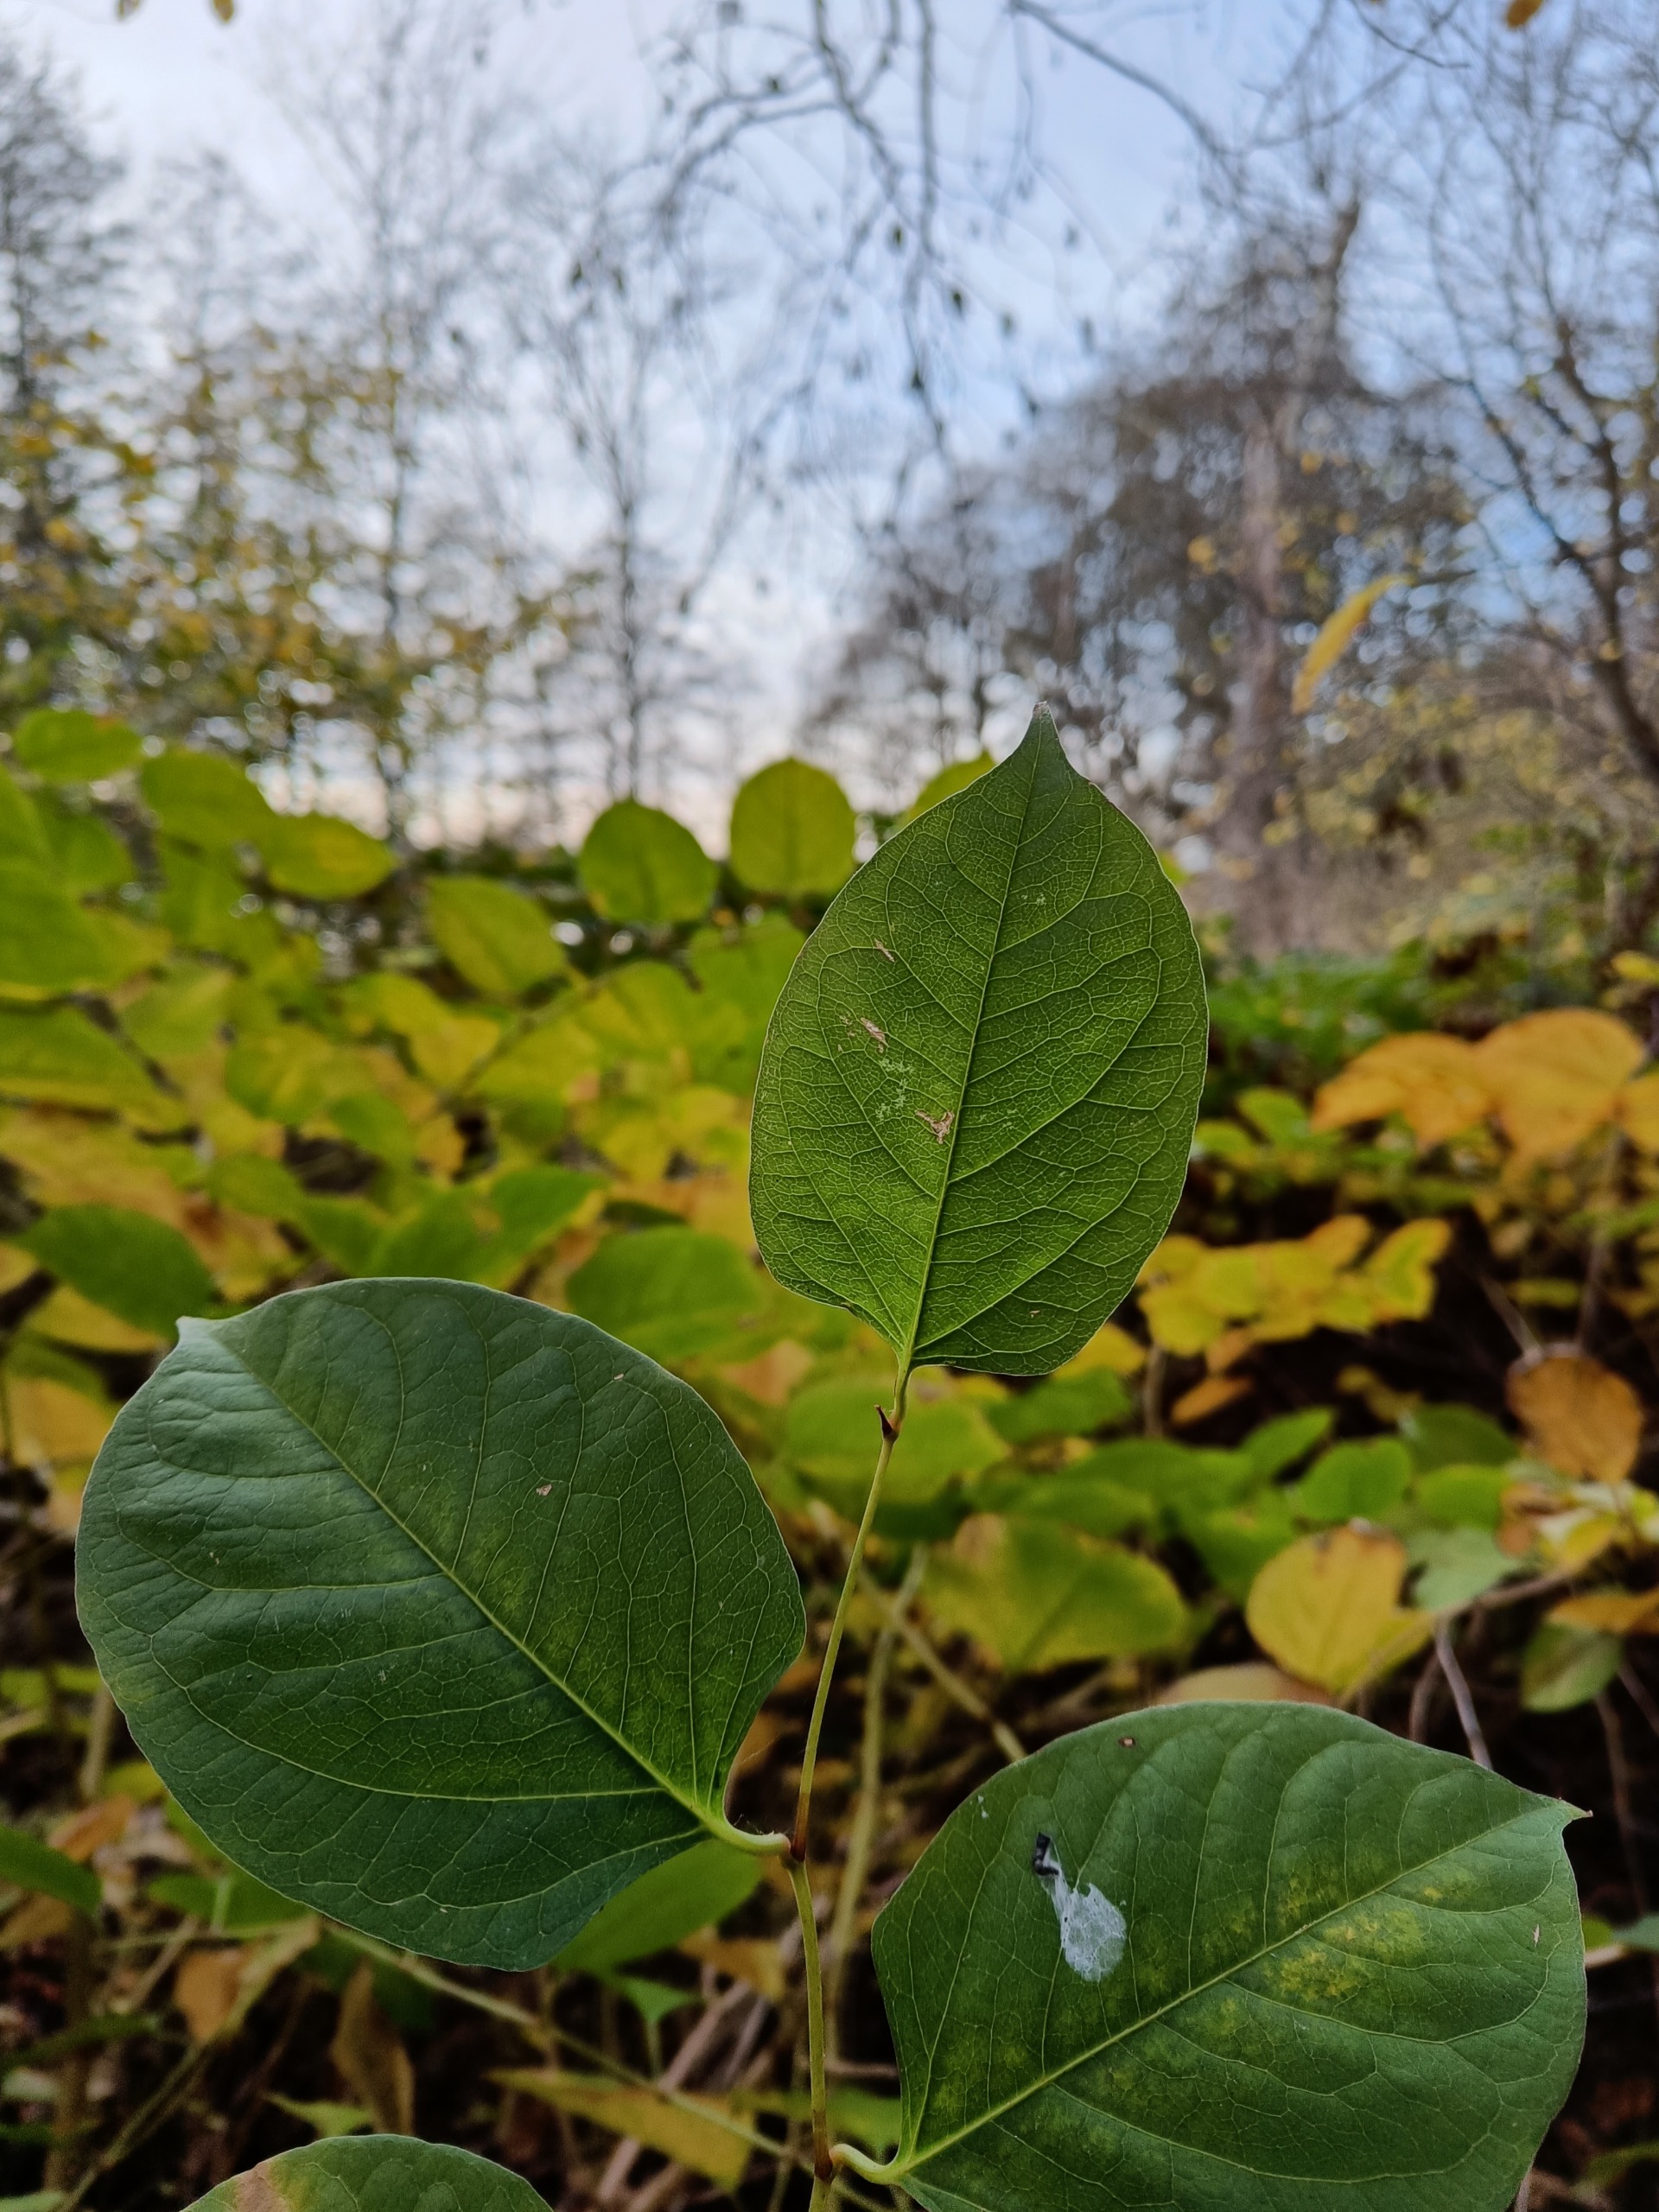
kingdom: Plantae
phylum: Tracheophyta
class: Magnoliopsida
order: Caryophyllales
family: Polygonaceae
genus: Reynoutria
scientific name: Reynoutria japonica
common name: Japan-pileurt
